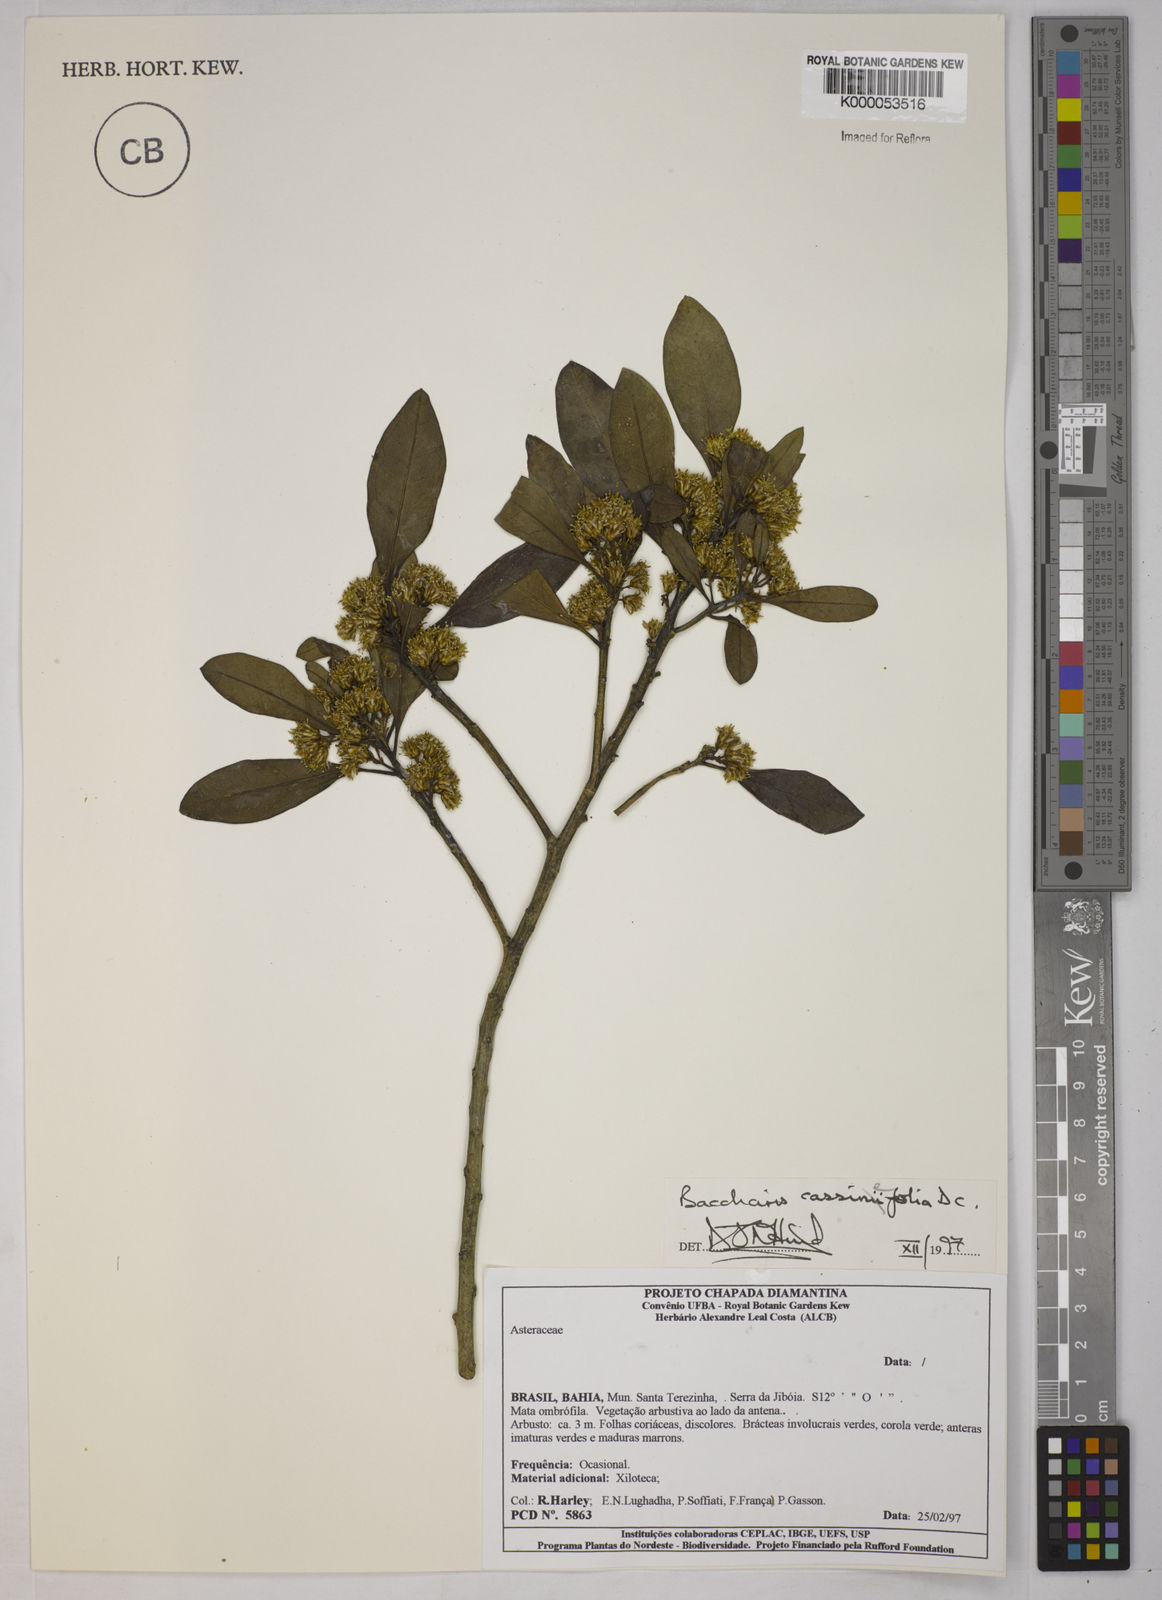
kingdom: Plantae
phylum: Tracheophyta
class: Magnoliopsida
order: Asterales
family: Asteraceae
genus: Baccharis
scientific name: Baccharis singularis
